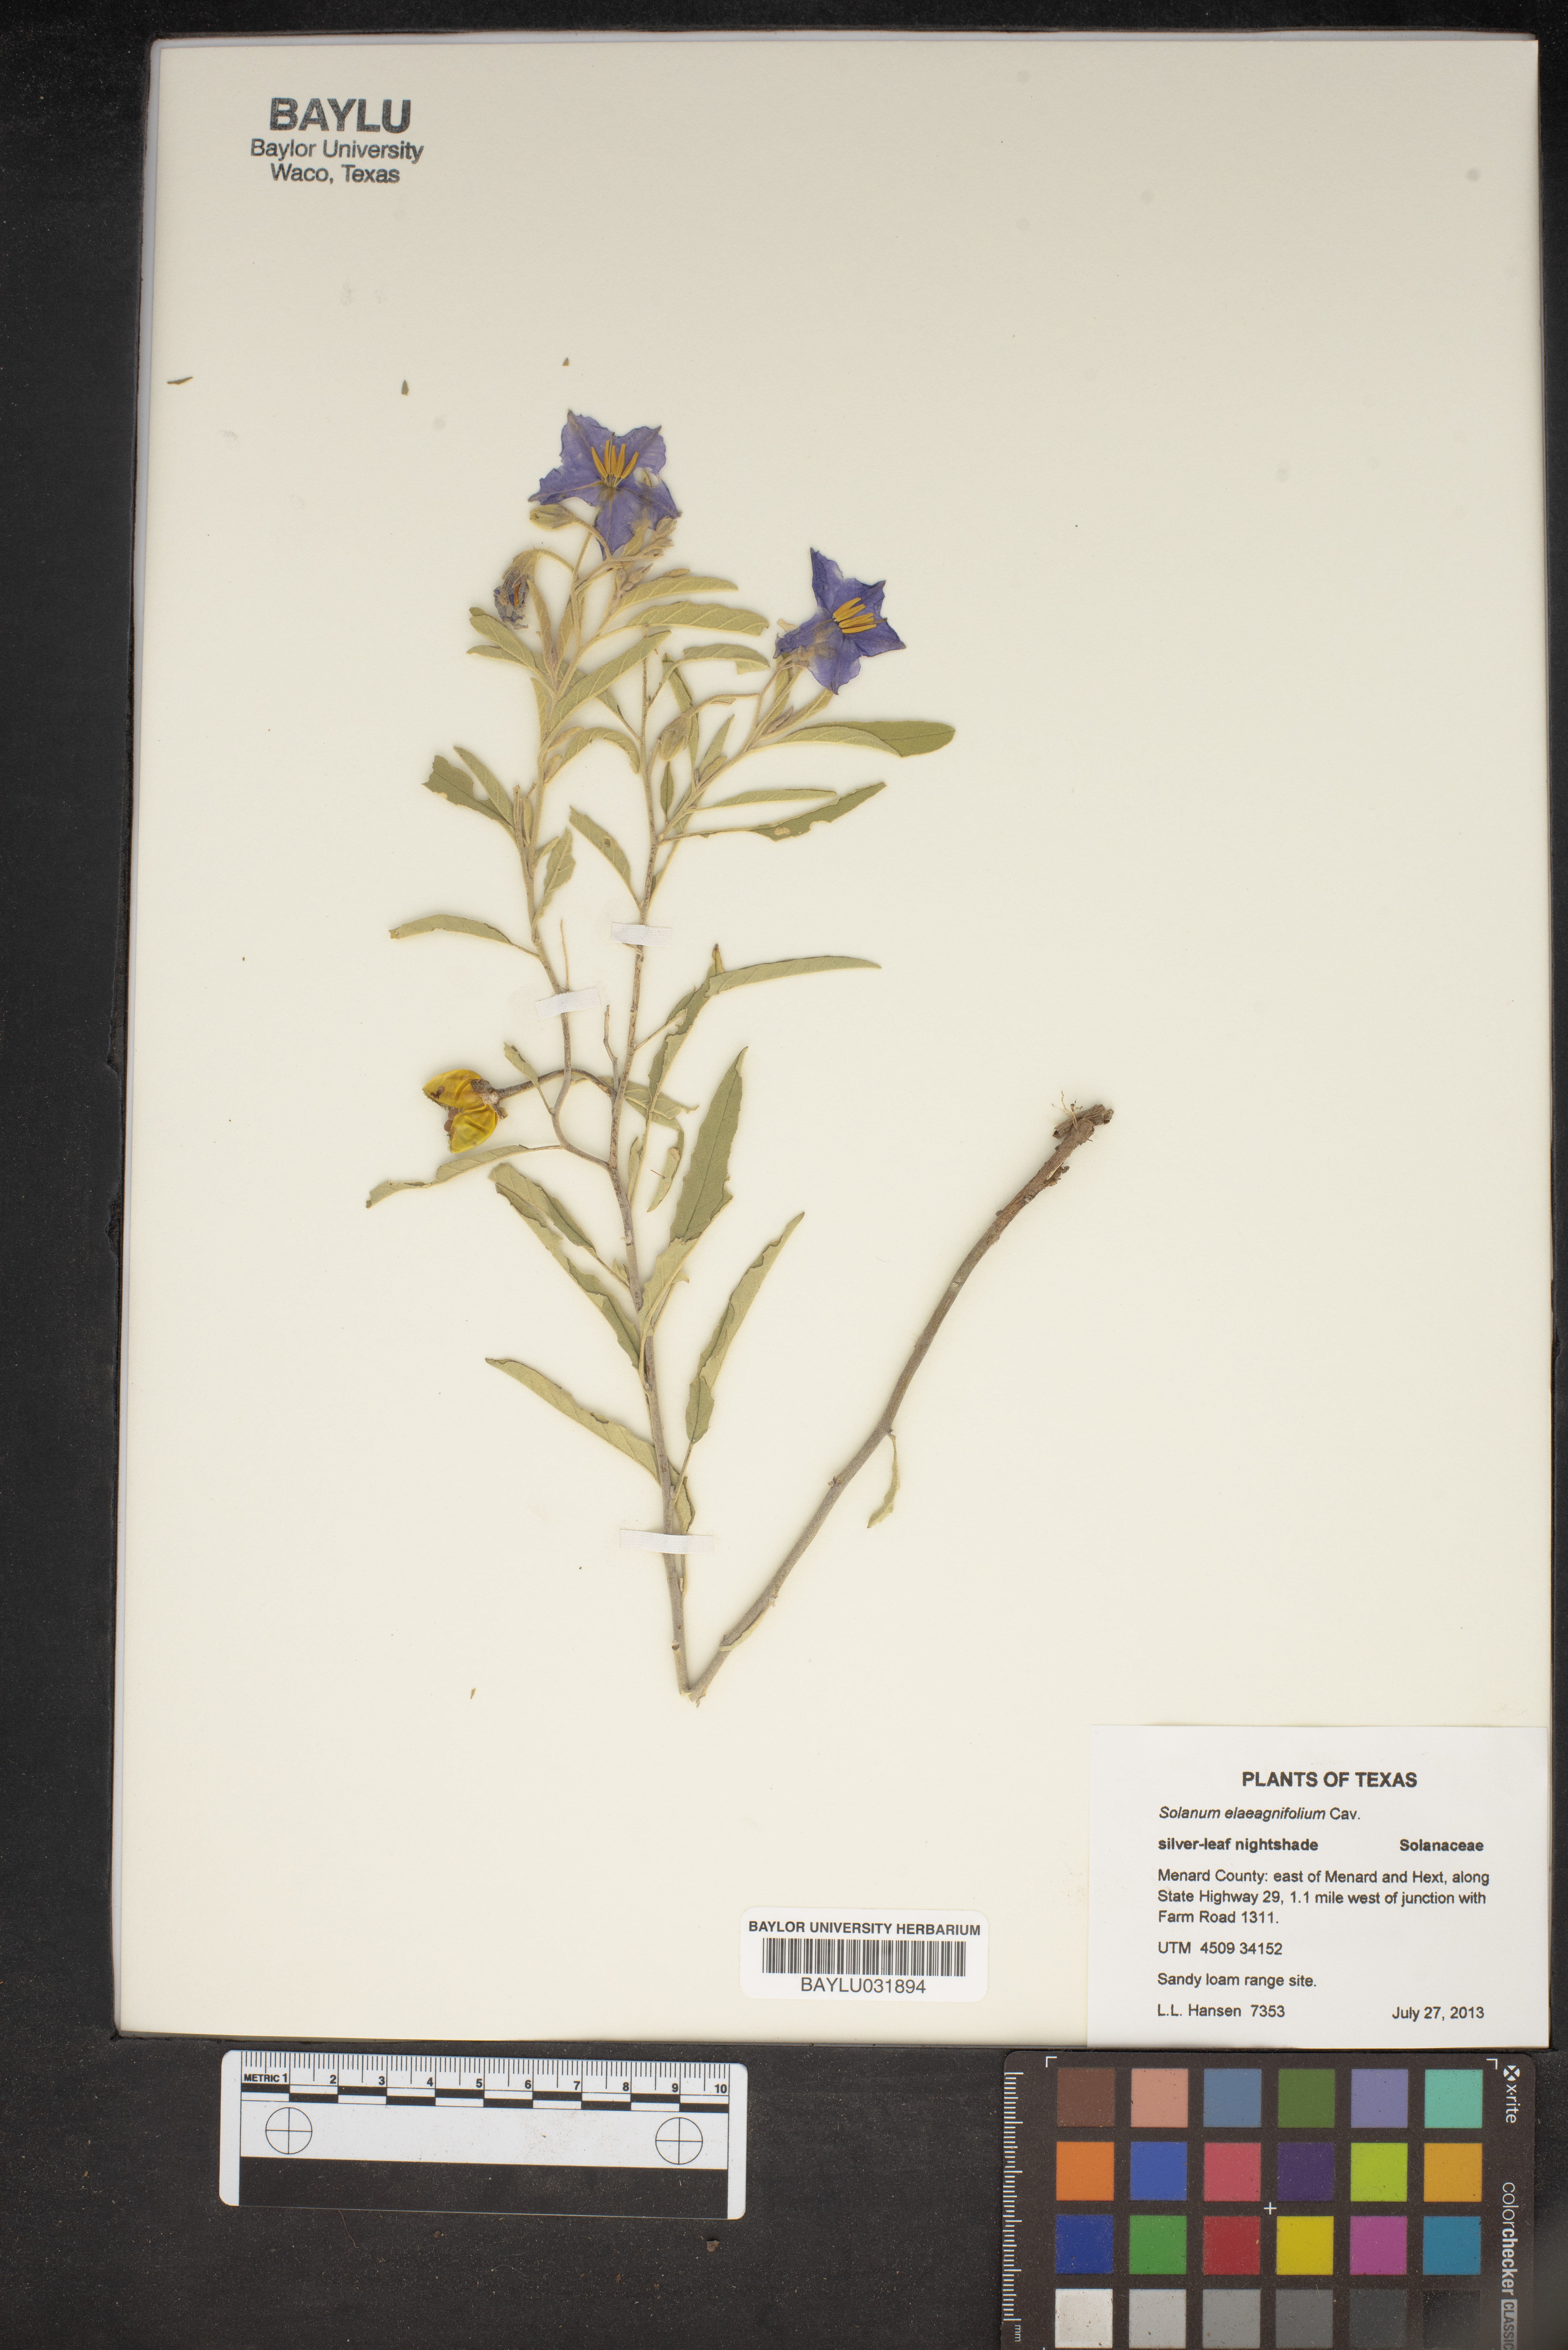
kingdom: Plantae
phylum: Tracheophyta
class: Magnoliopsida
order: Solanales
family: Solanaceae
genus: Solanum
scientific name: Solanum elaeagnifolium
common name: Silverleaf nightshade
